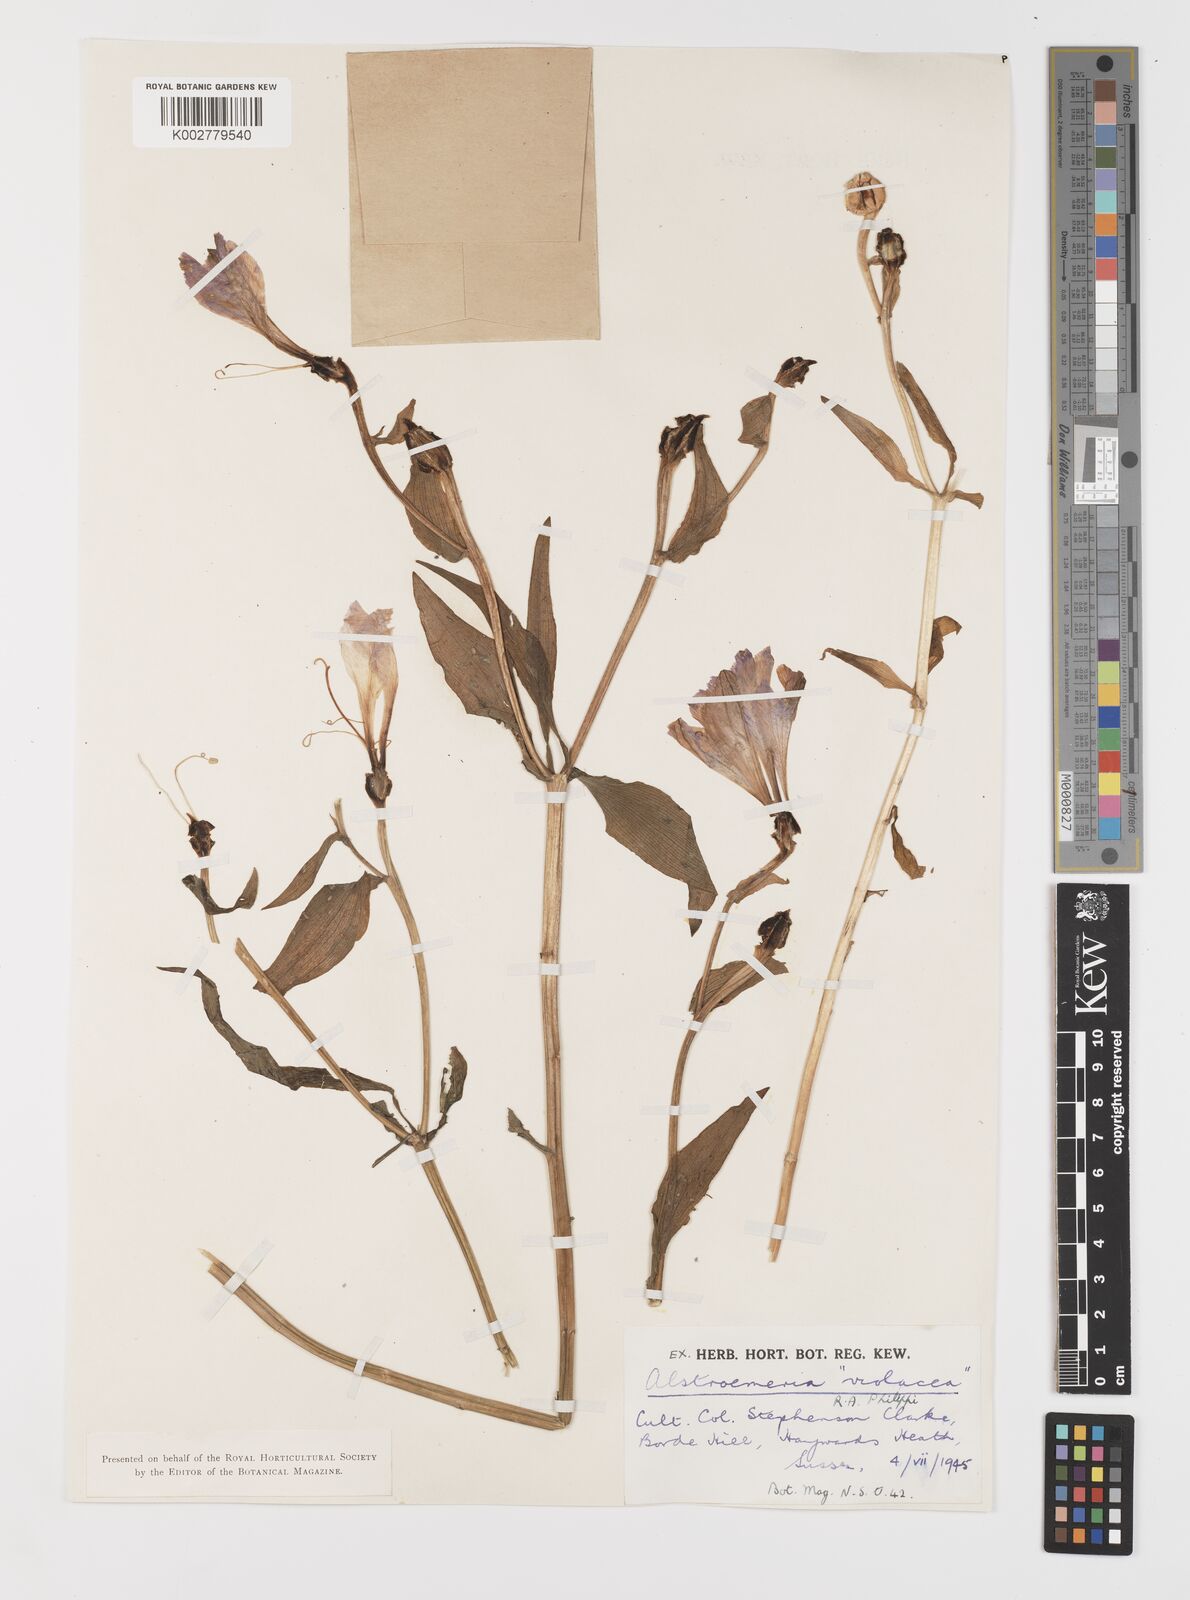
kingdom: Plantae
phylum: Tracheophyta
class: Liliopsida
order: Liliales
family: Alstroemeriaceae
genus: Alstroemeria
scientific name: Alstroemeria paupercula
